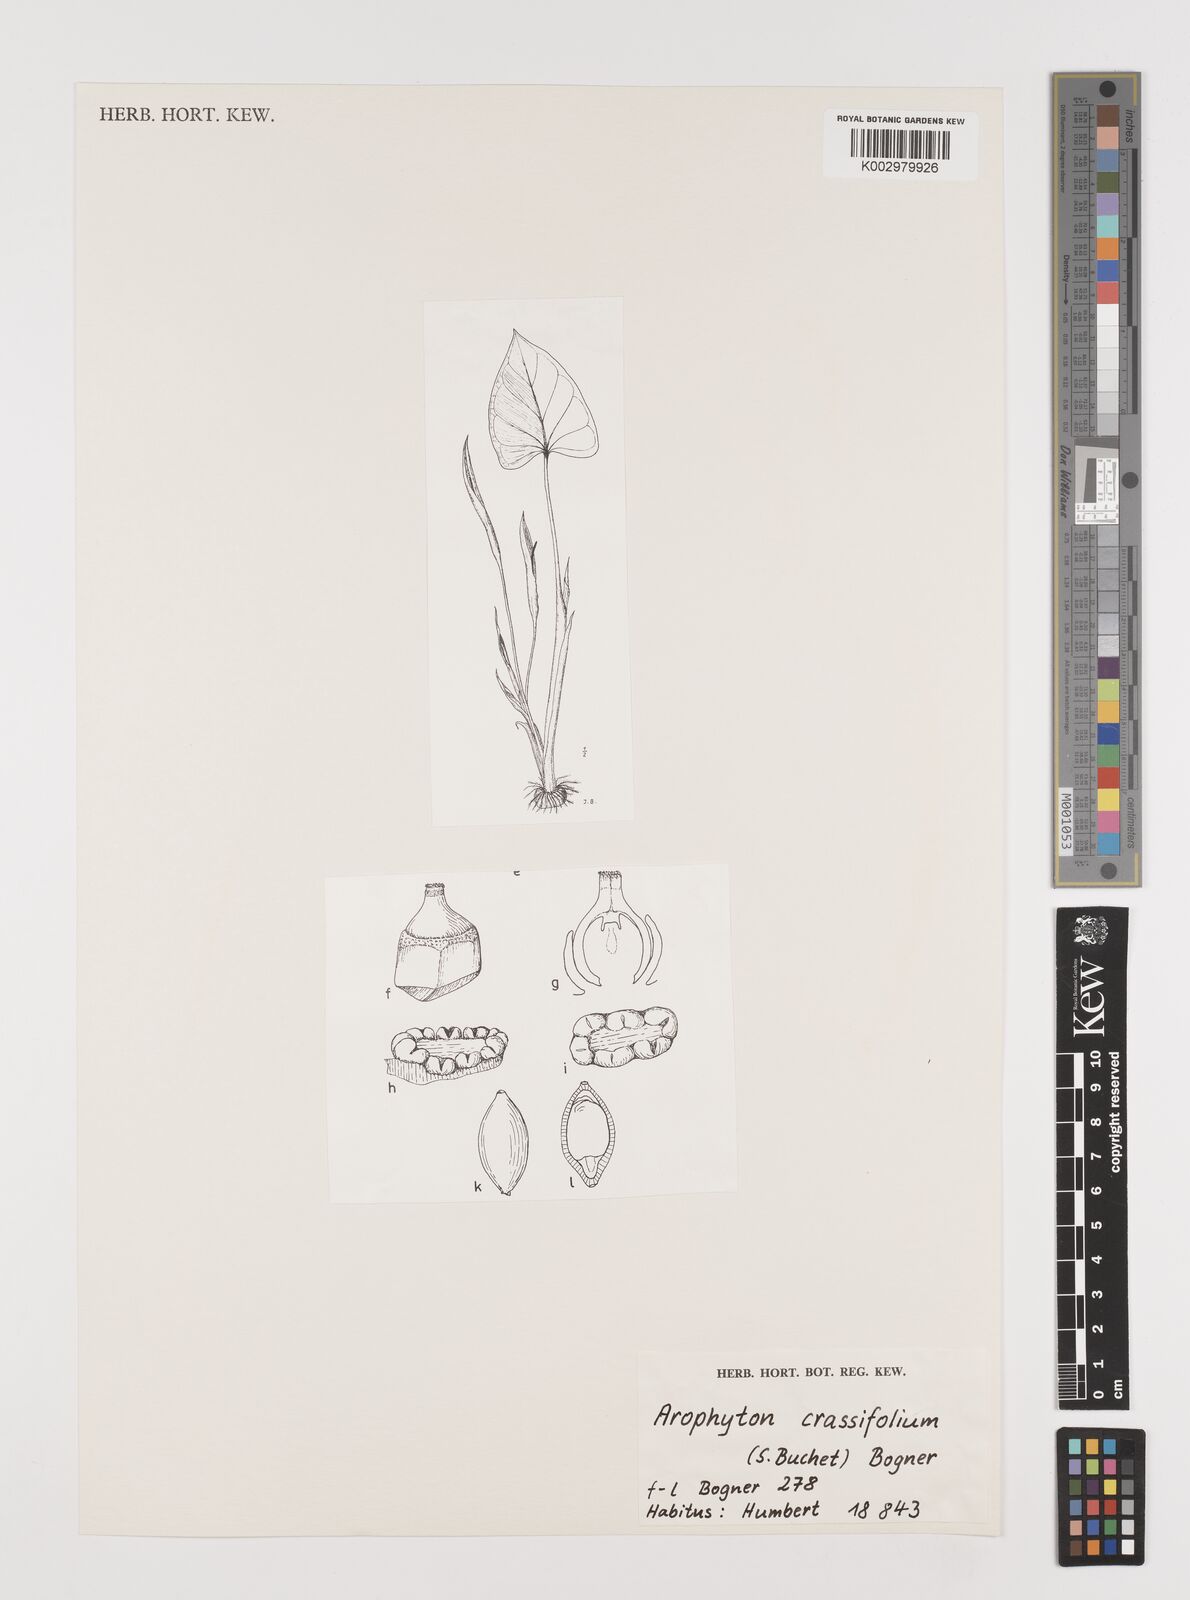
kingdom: Plantae
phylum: Tracheophyta
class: Liliopsida
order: Alismatales
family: Araceae
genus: Arophyton
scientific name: Arophyton crassifolium
